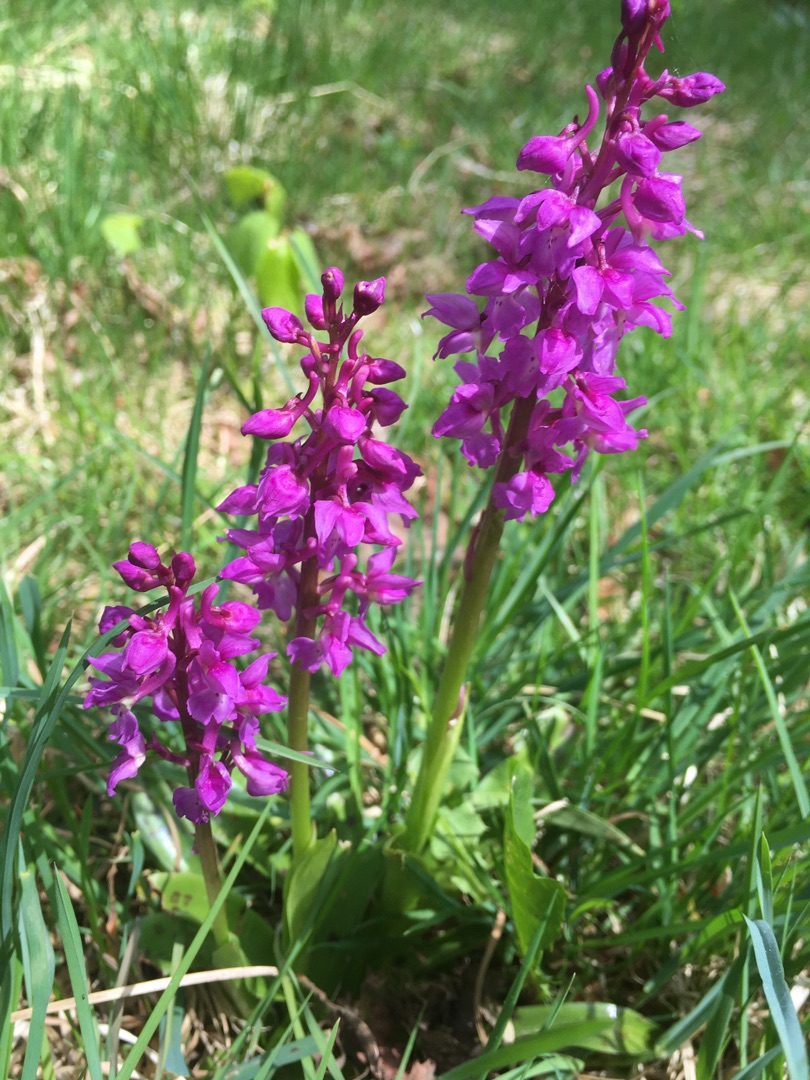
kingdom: Plantae
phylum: Tracheophyta
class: Liliopsida
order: Asparagales
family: Orchidaceae
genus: Orchis
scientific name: Orchis mascula
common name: Tyndakset gøgeurt
